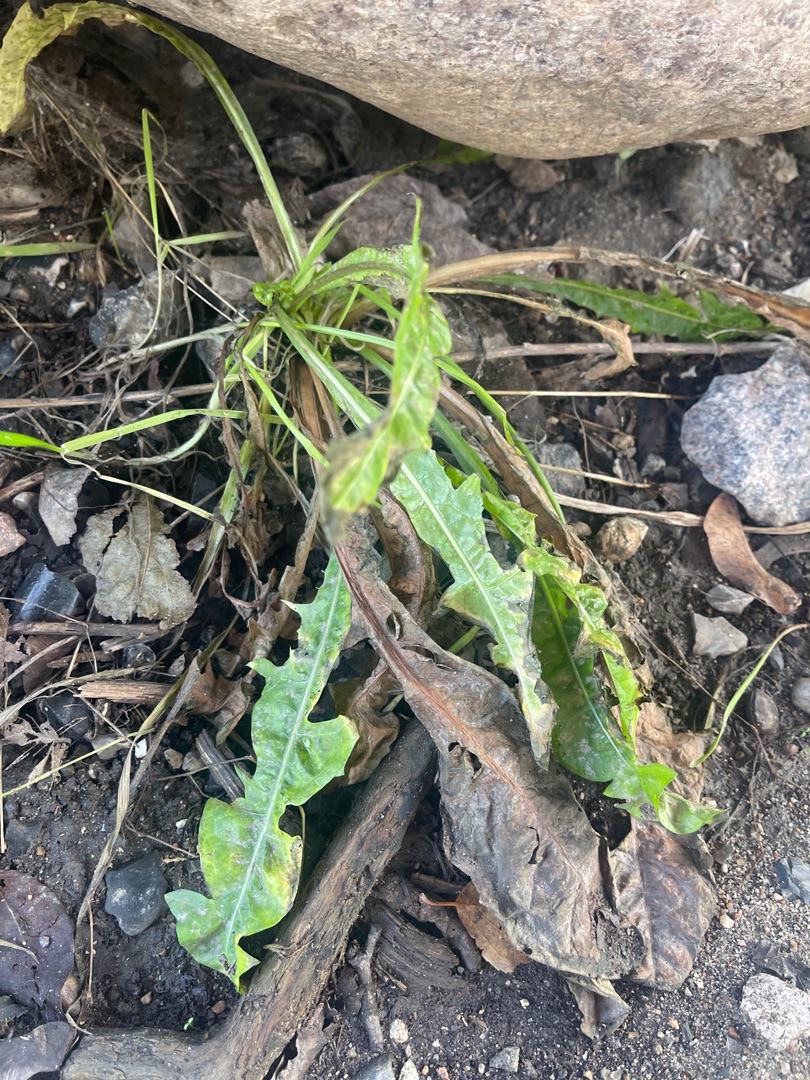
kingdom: Plantae
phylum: Tracheophyta
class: Magnoliopsida
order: Asterales
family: Asteraceae
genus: Taraxacum
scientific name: Taraxacum
